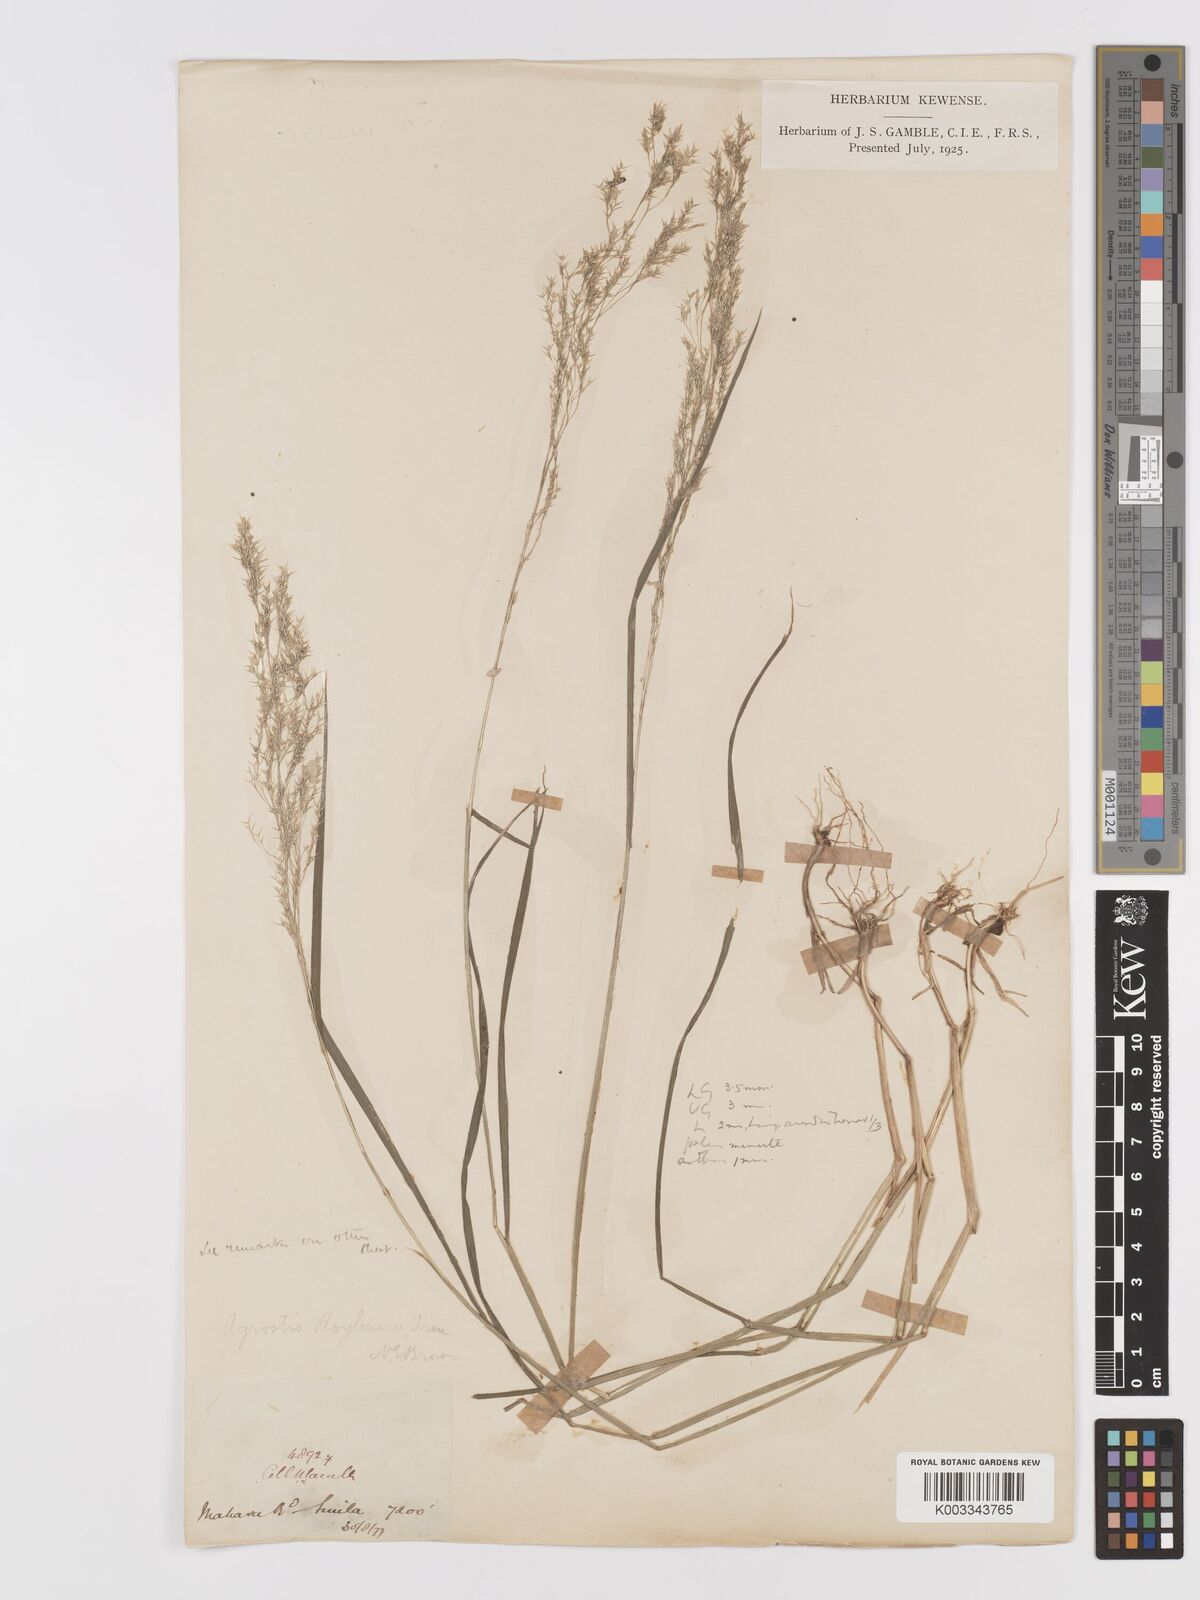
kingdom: Plantae
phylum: Tracheophyta
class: Liliopsida
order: Poales
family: Poaceae
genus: Agrostis
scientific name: Agrostis pilosula
